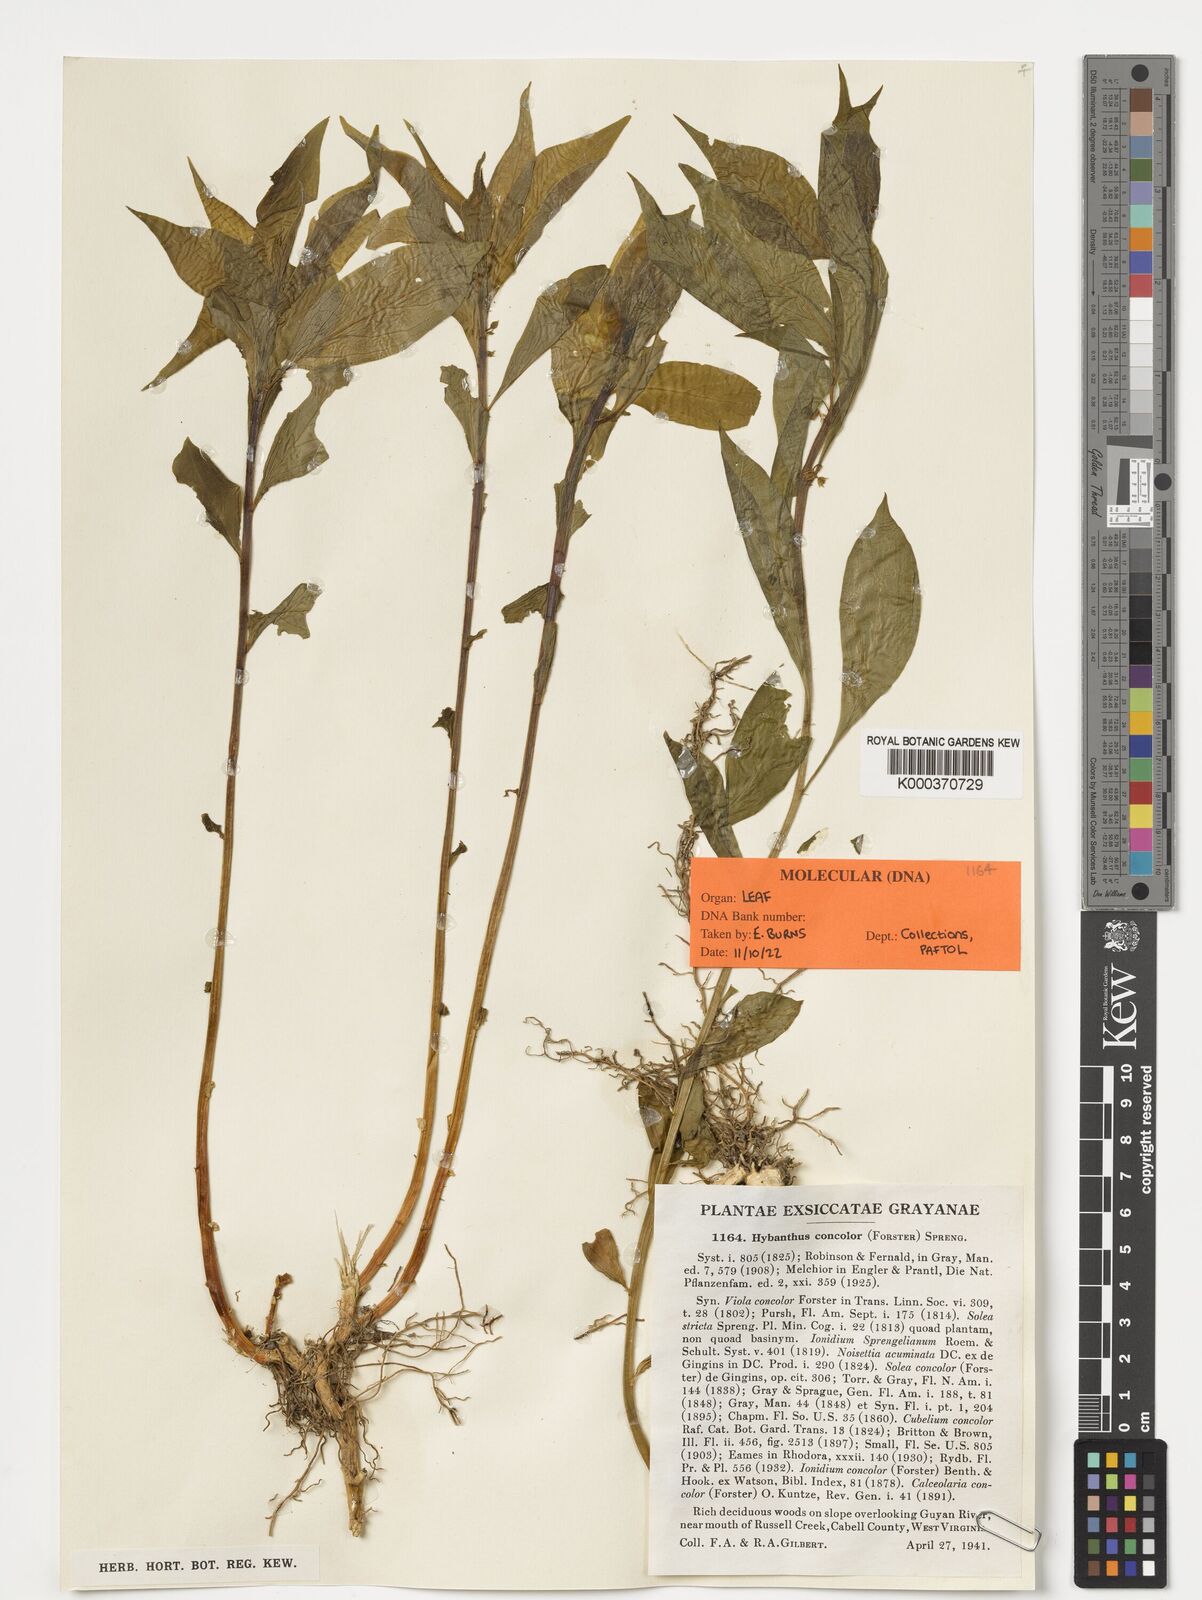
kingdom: Plantae
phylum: Tracheophyta
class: Magnoliopsida
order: Malpighiales
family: Violaceae
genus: Cubelium
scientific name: Cubelium concolor
